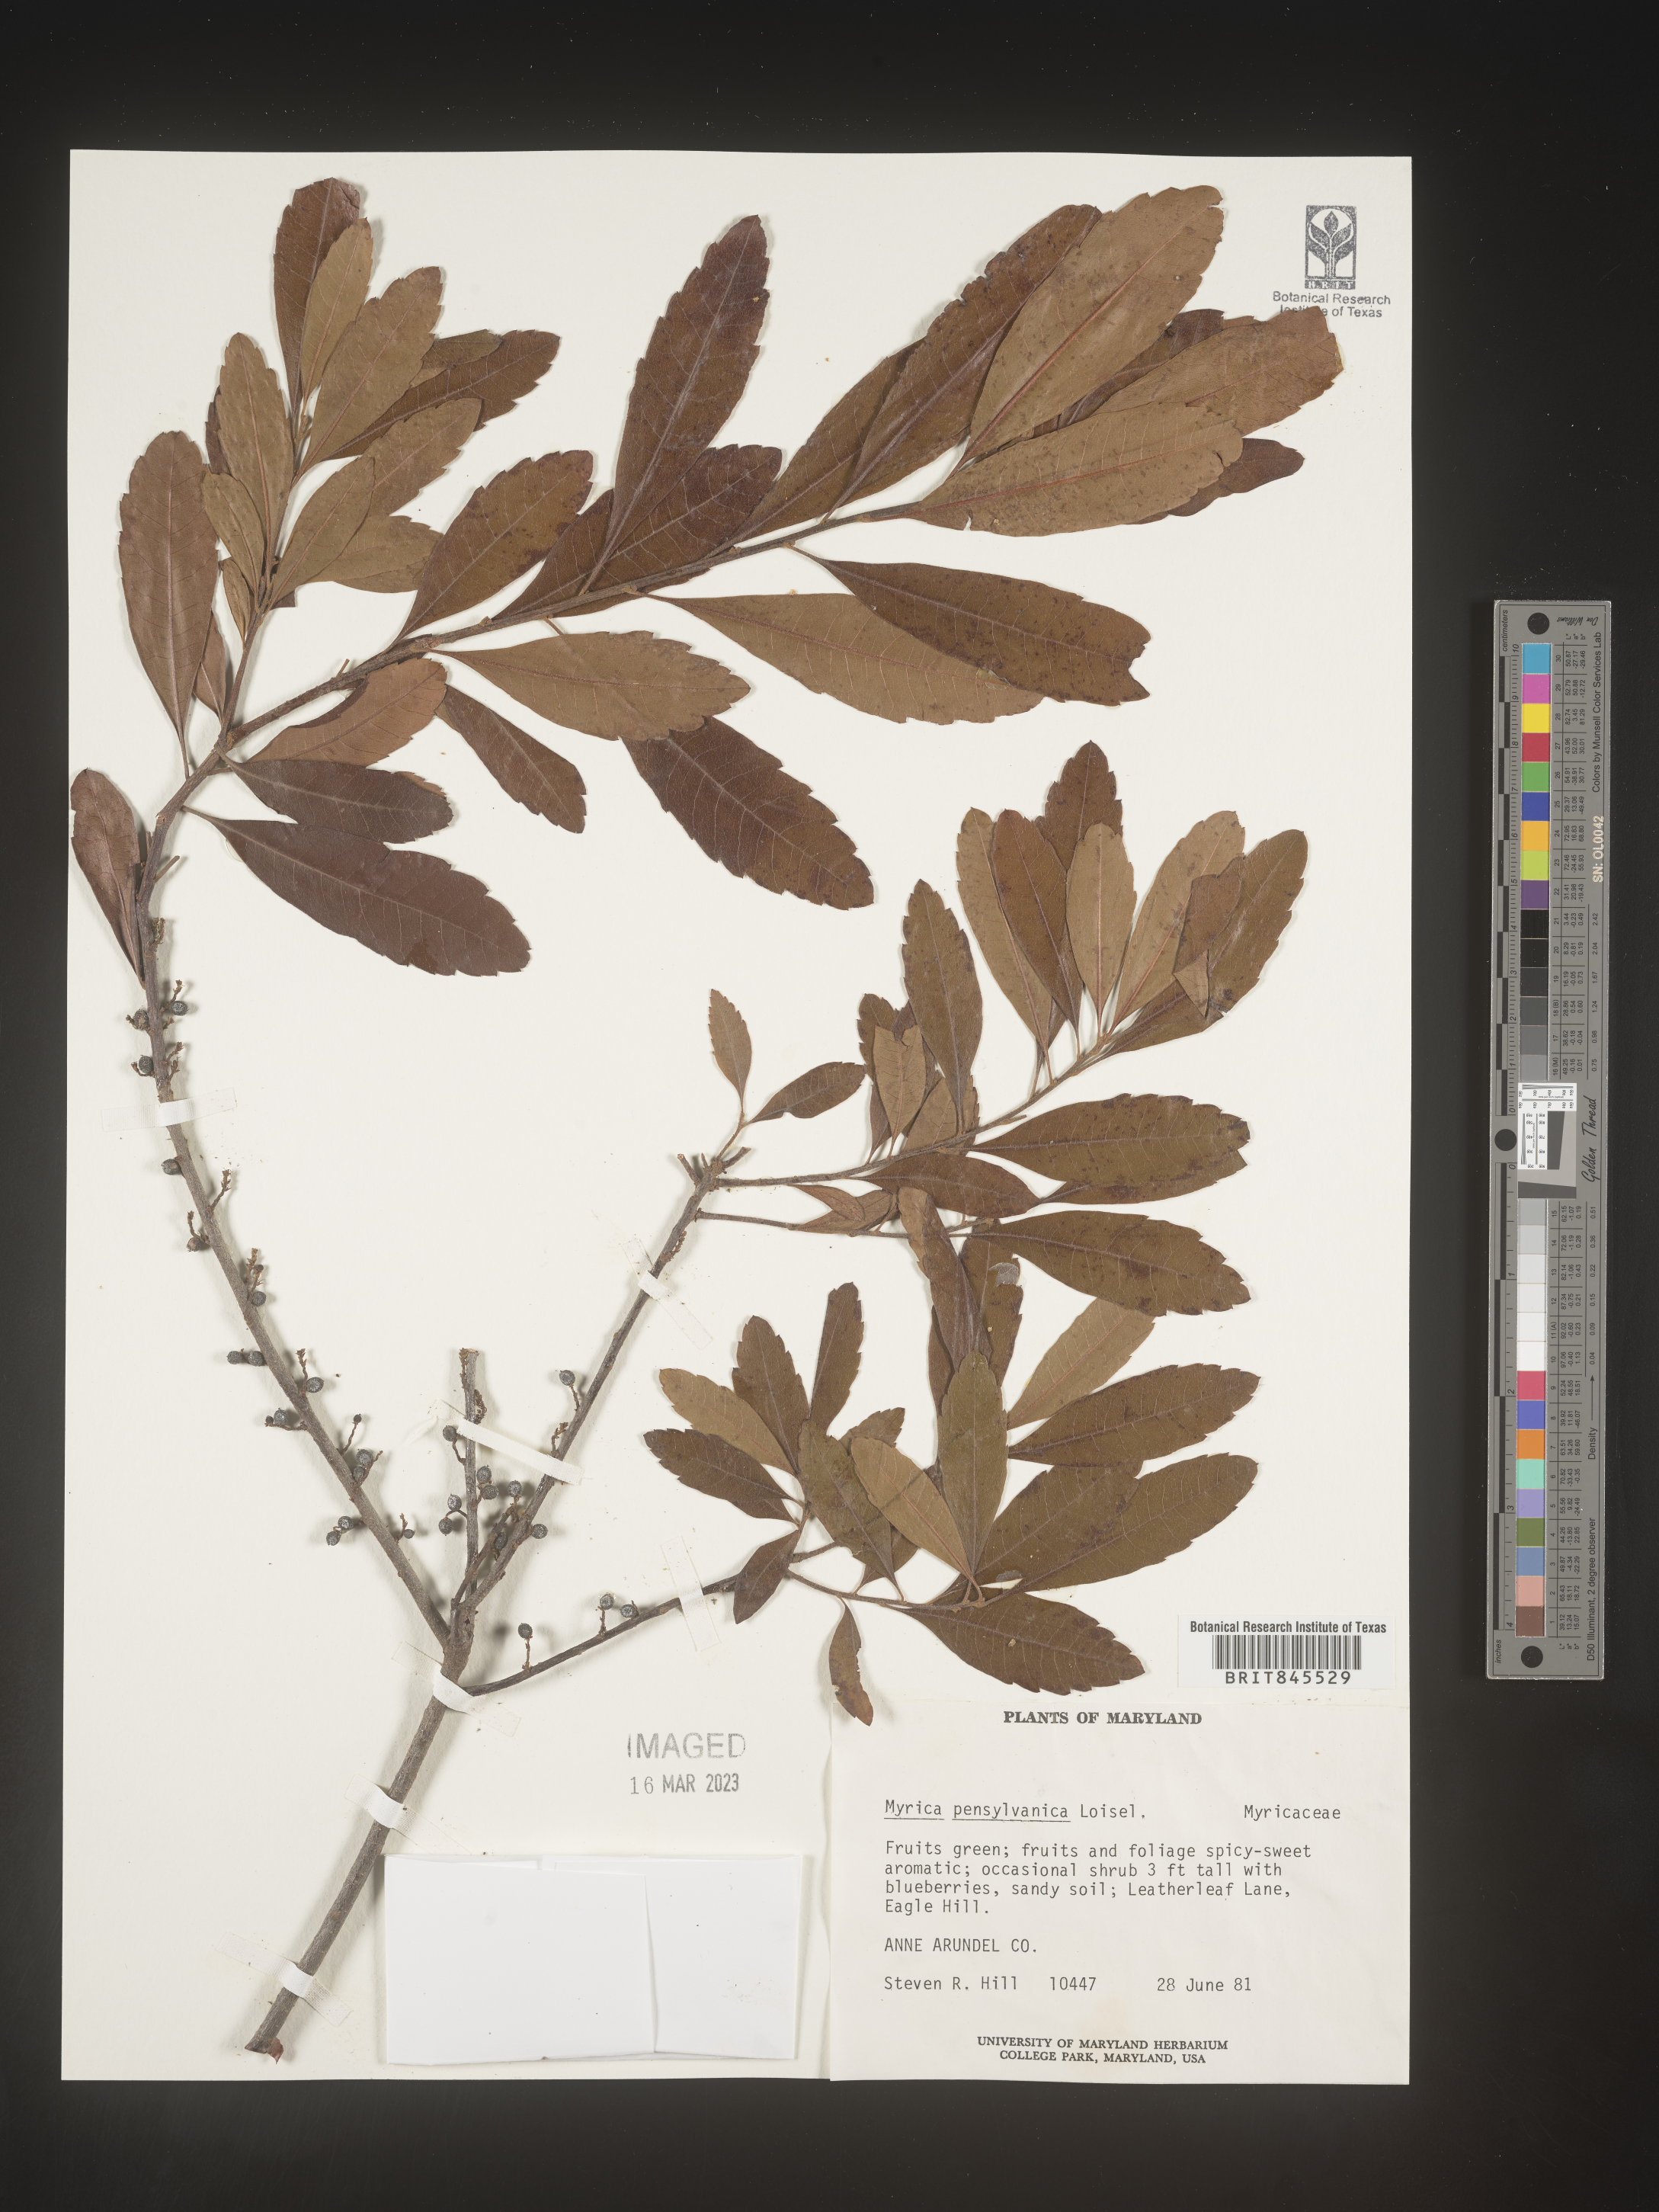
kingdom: Plantae
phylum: Tracheophyta
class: Magnoliopsida
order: Fagales
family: Myricaceae
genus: Myrica
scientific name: Myrica
